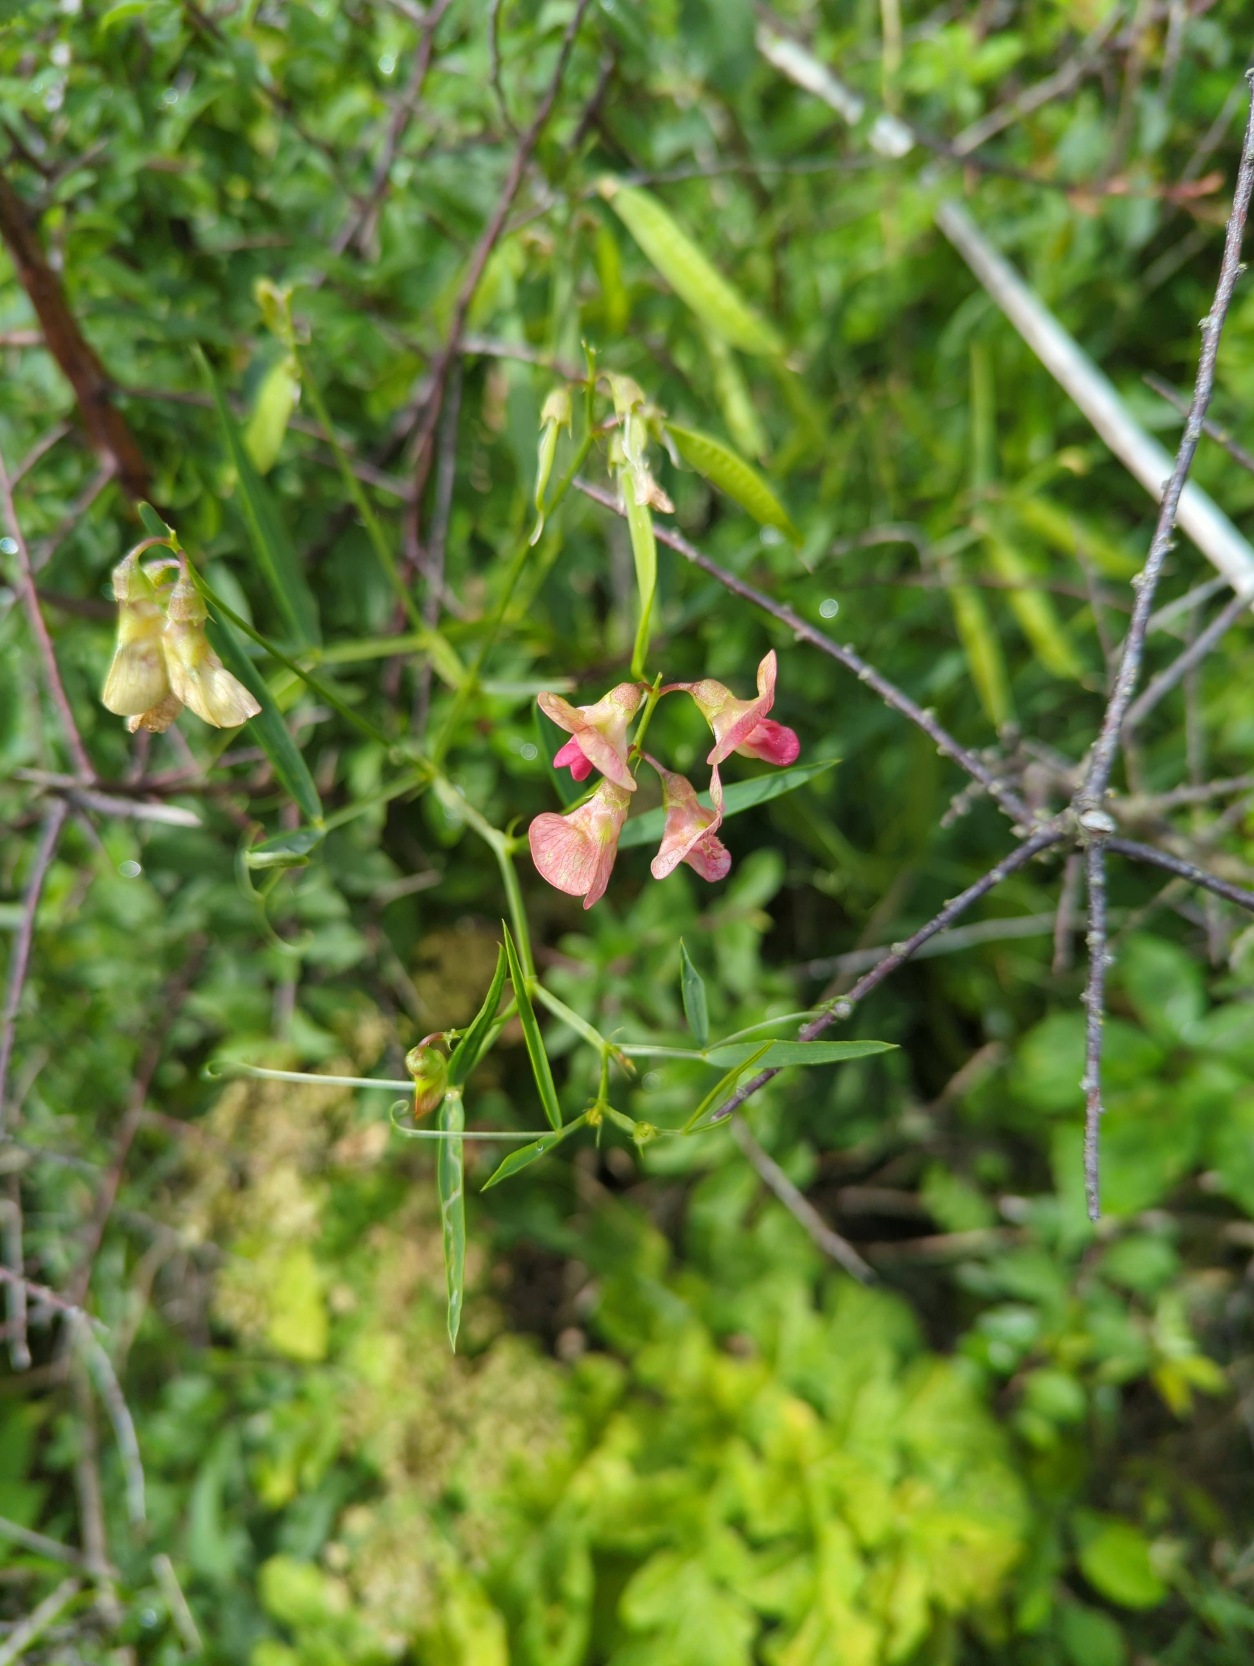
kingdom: Plantae
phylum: Tracheophyta
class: Magnoliopsida
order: Fabales
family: Fabaceae
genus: Lathyrus
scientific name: Lathyrus sylvestris
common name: Skov-fladbælg
